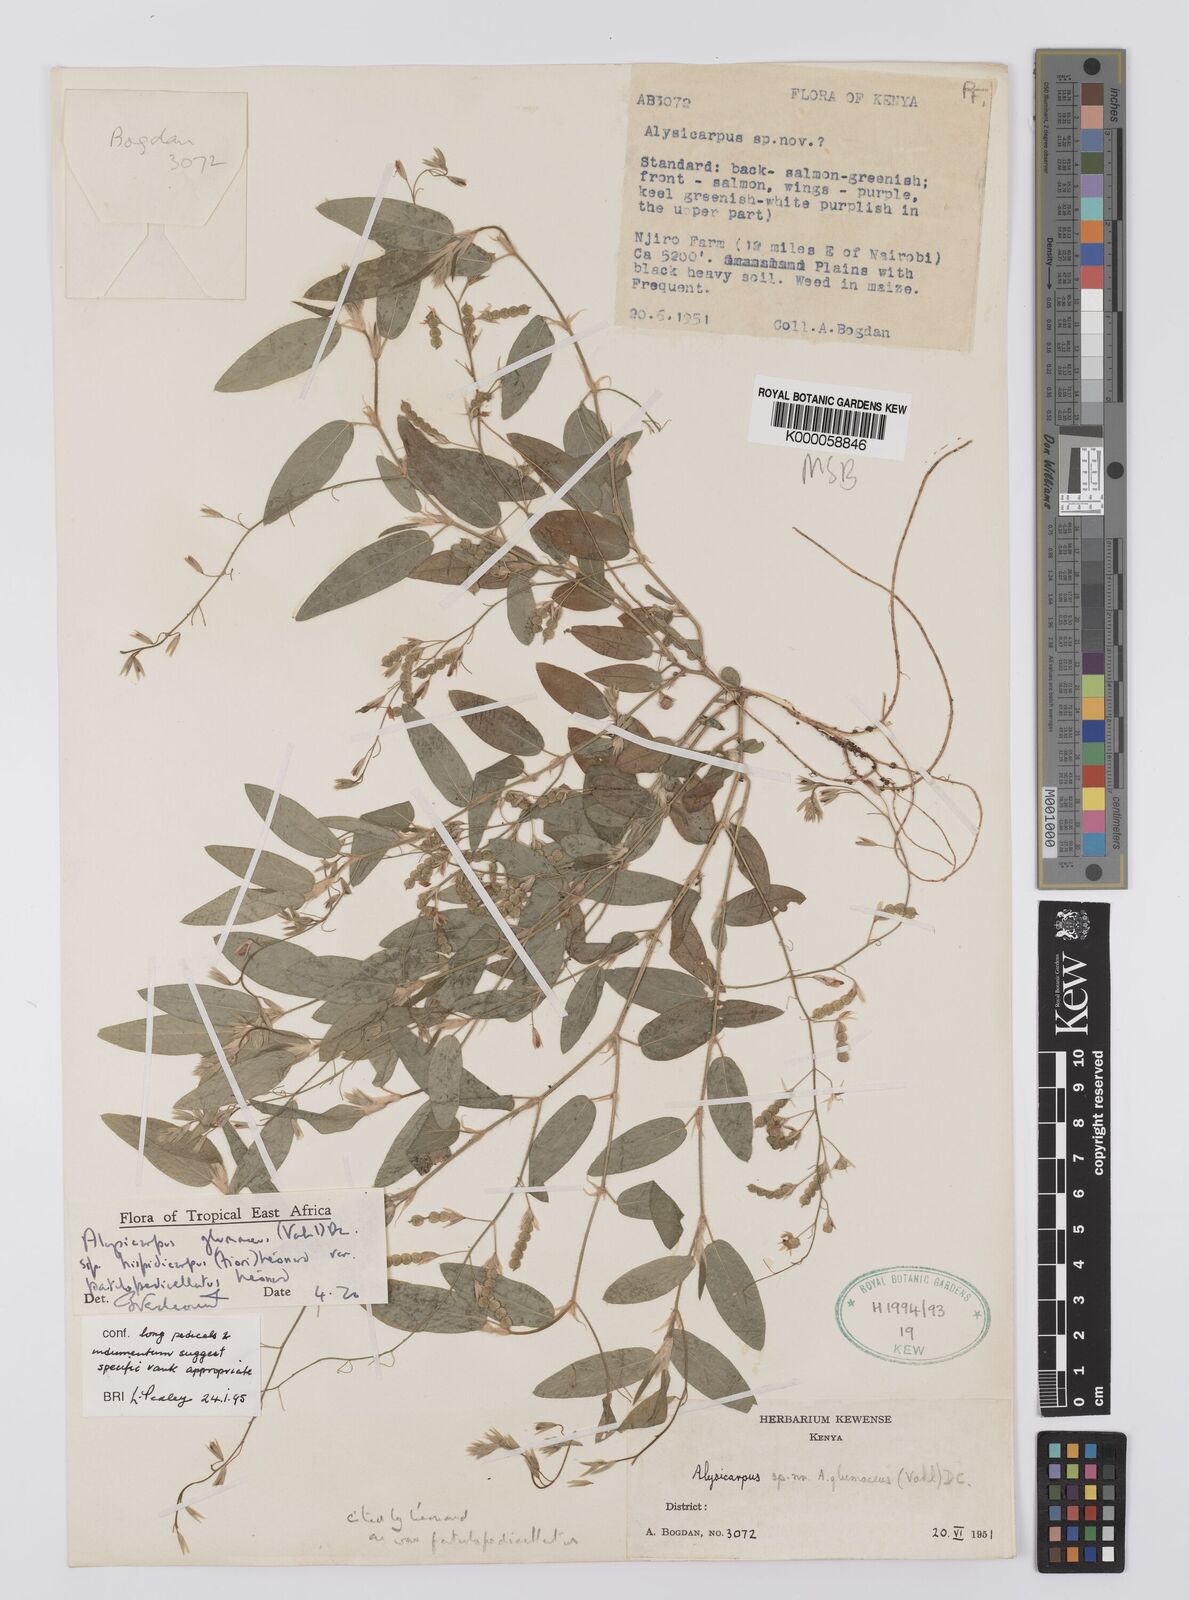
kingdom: Plantae
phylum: Tracheophyta
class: Magnoliopsida
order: Fabales
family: Fabaceae
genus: Alysicarpus
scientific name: Alysicarpus glumaceus
